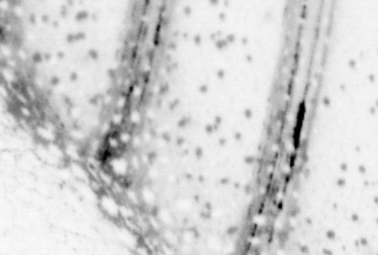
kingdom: Animalia
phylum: Chordata
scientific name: Chordata
